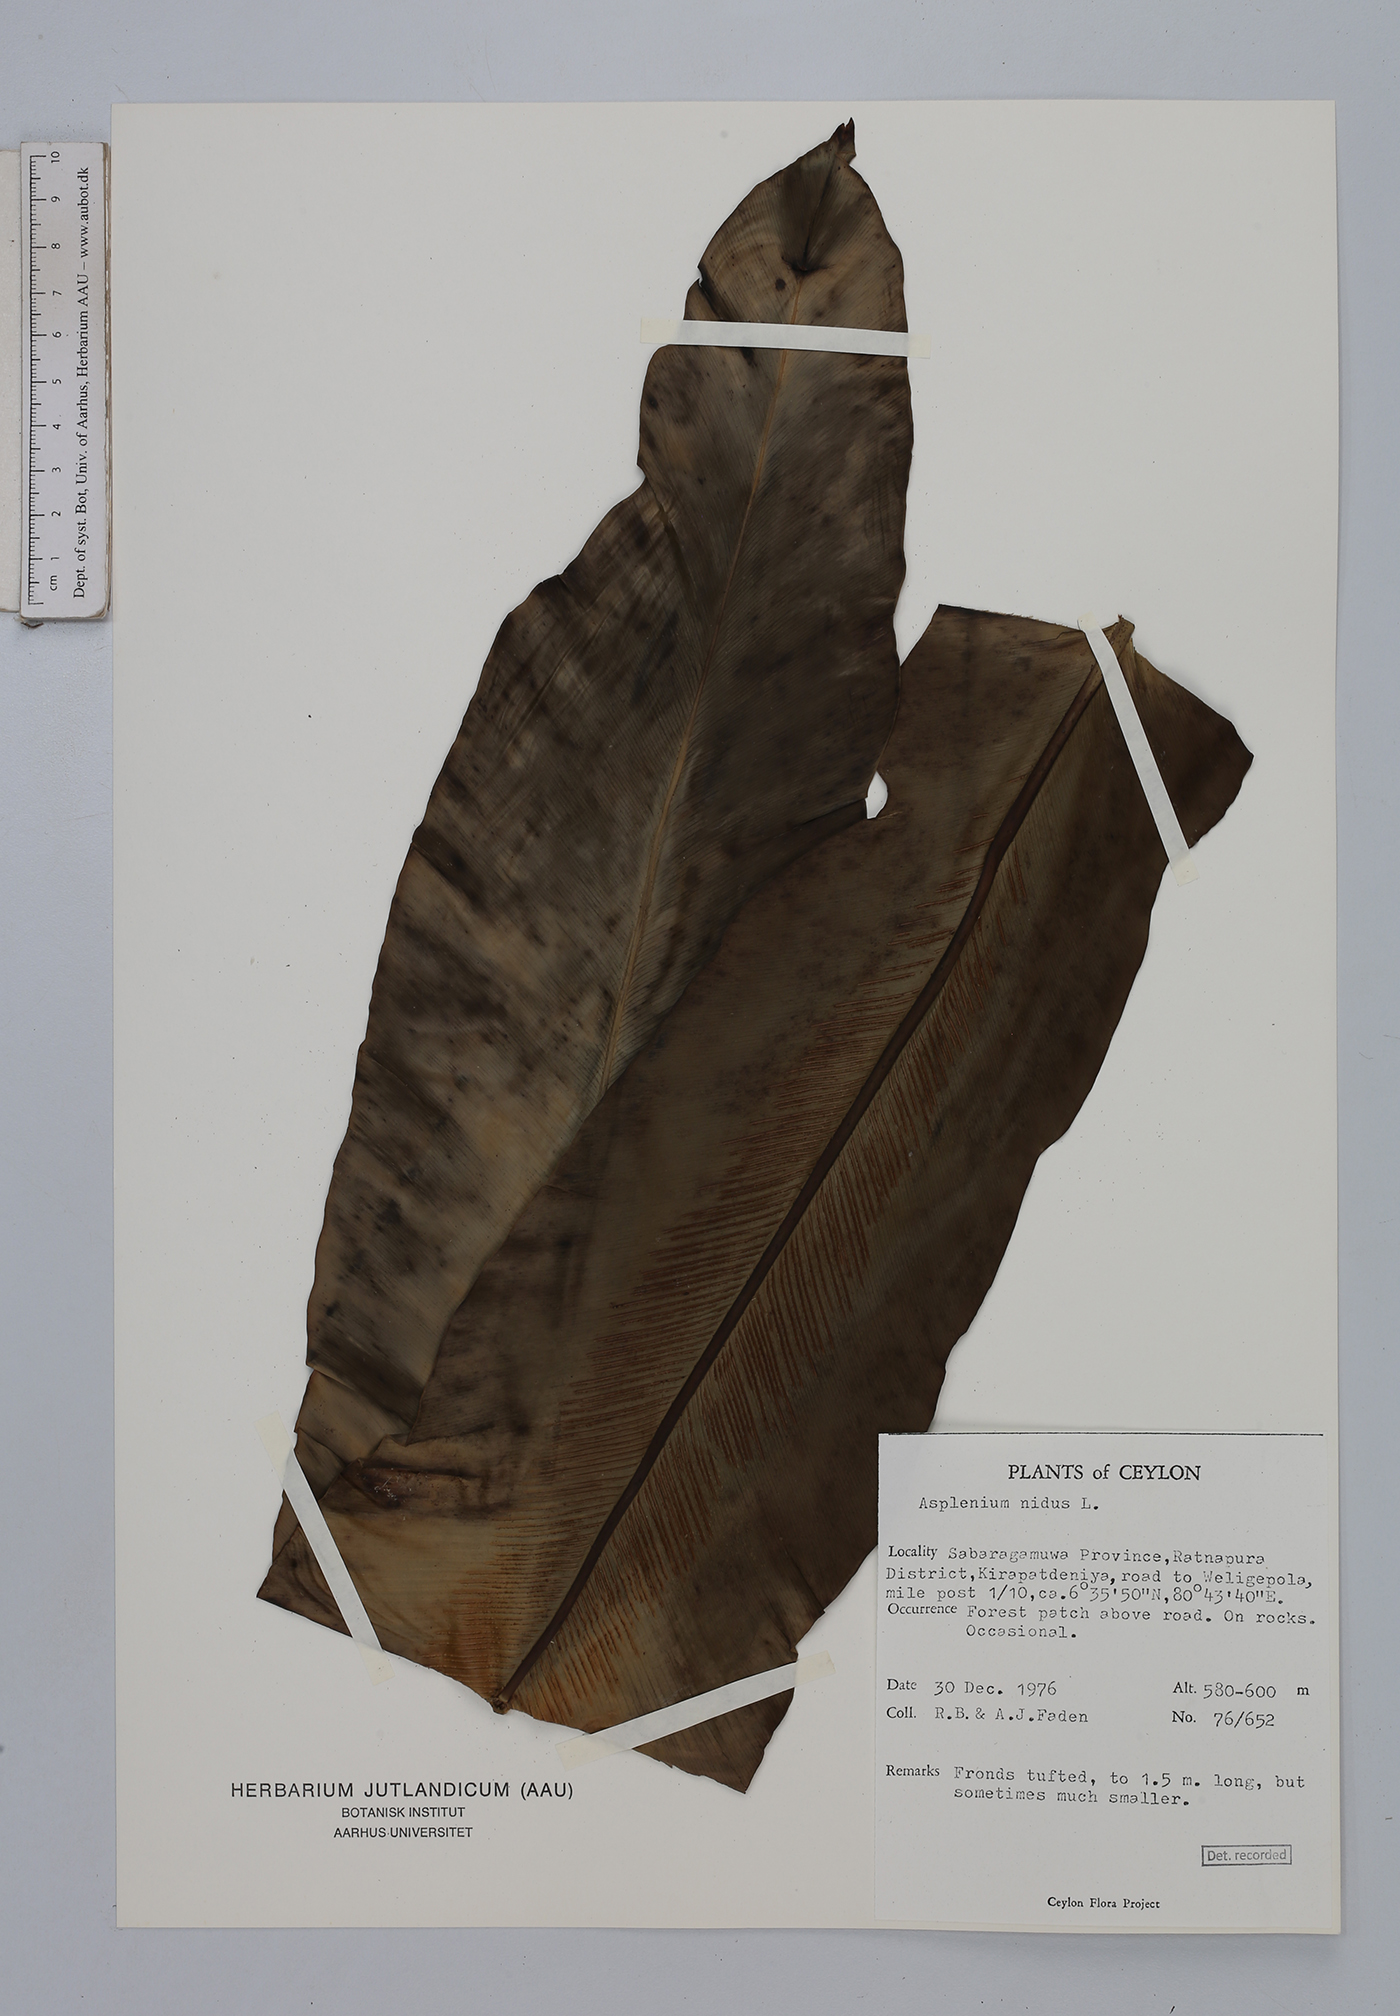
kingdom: Plantae
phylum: Tracheophyta
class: Polypodiopsida
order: Polypodiales
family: Aspleniaceae
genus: Asplenium
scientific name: Asplenium nidus
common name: Bird's-nest fern
